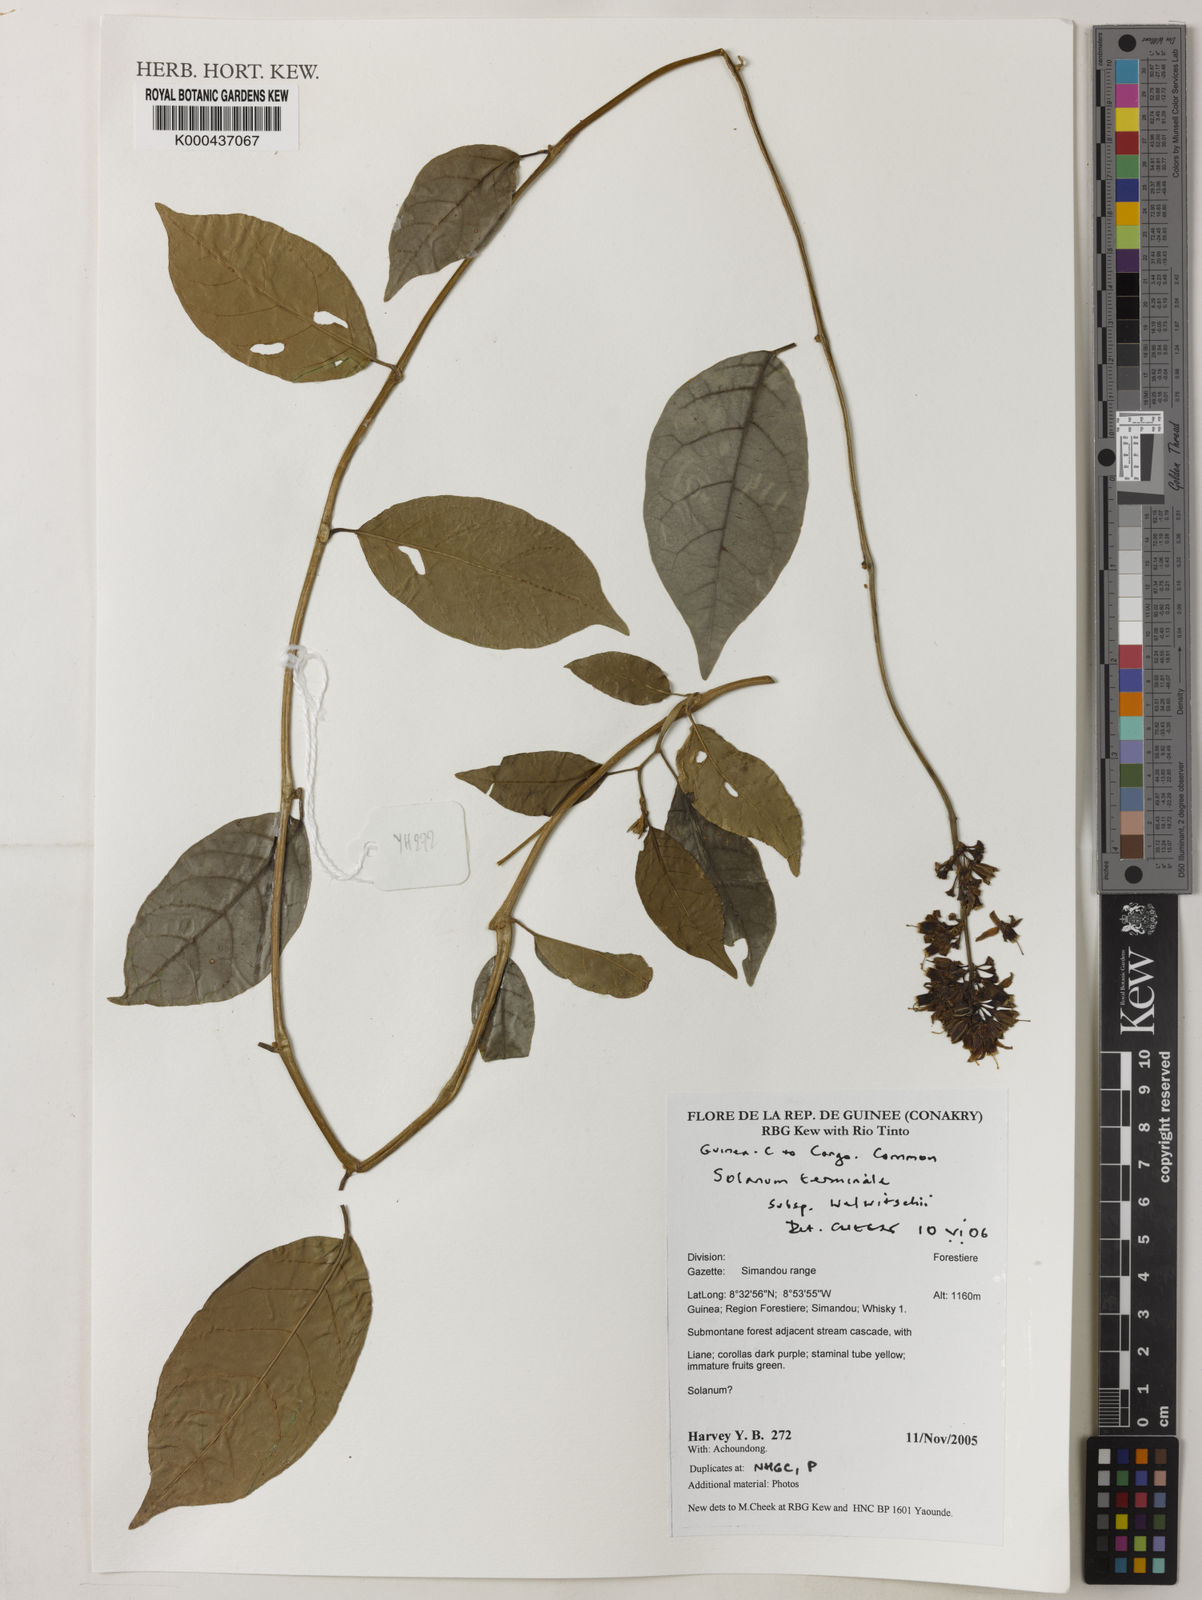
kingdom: Plantae
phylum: Tracheophyta
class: Magnoliopsida
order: Solanales
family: Solanaceae
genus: Solanum
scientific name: Solanum terminale
